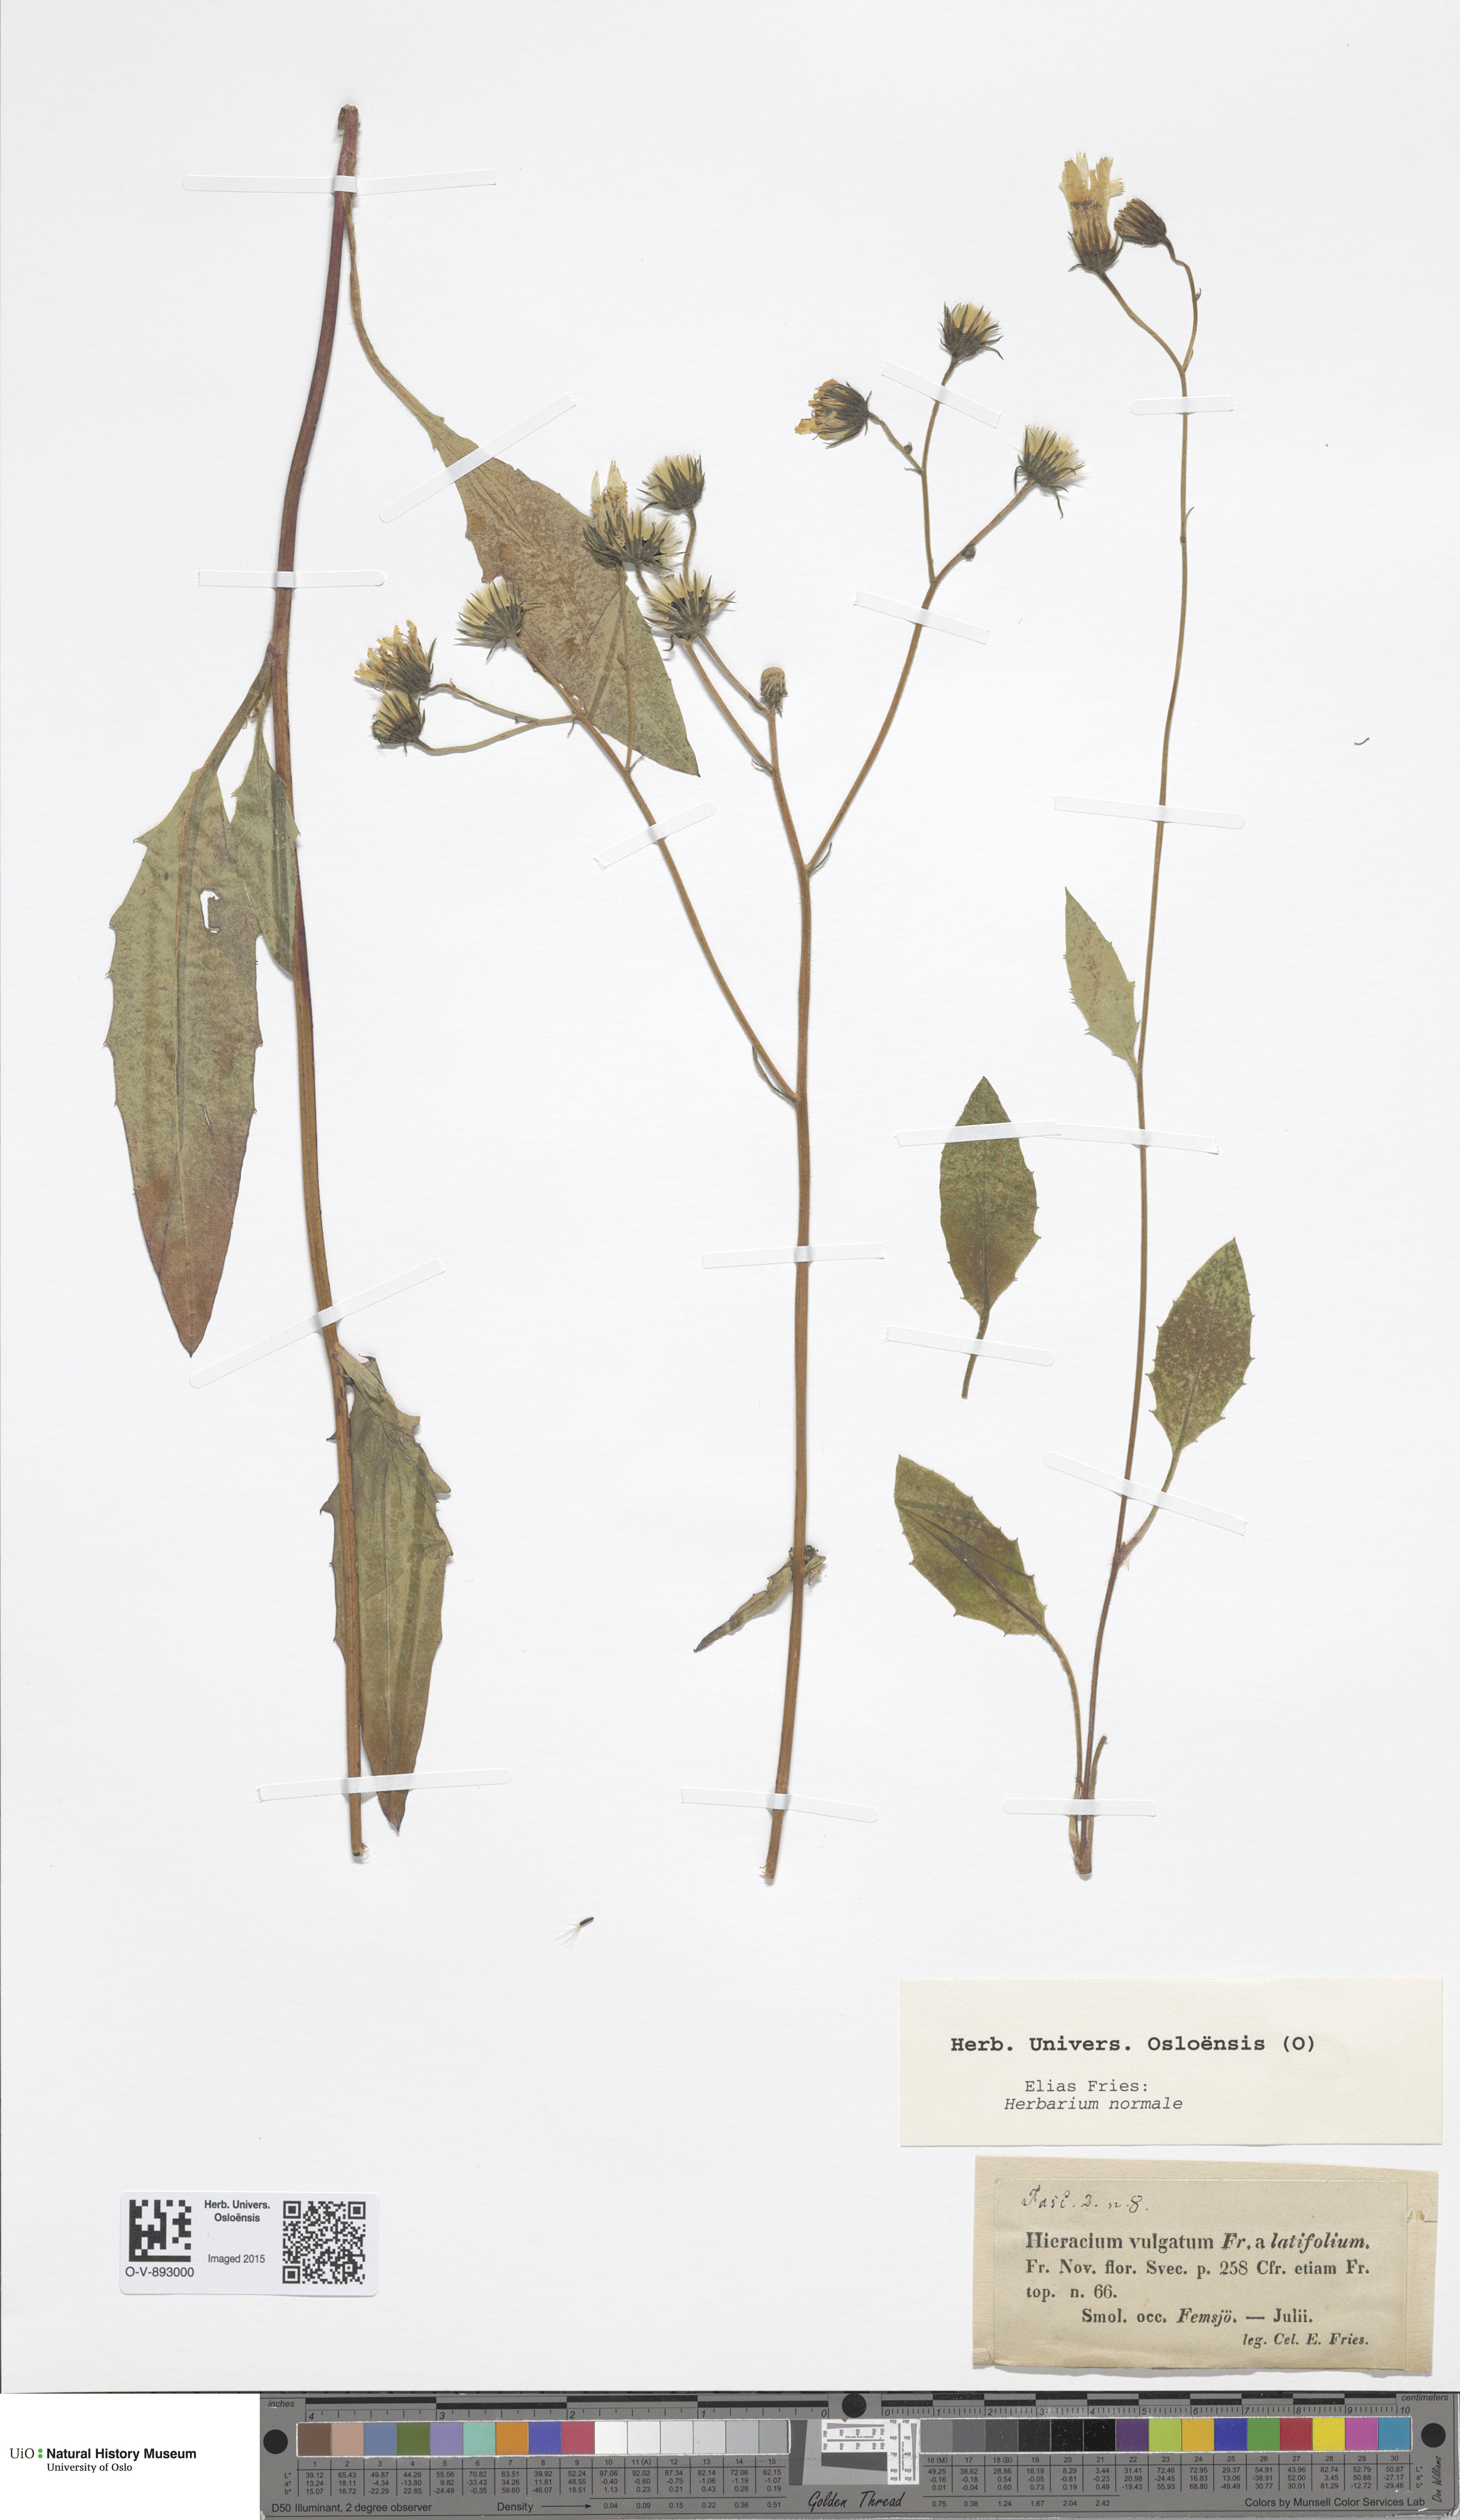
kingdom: Plantae
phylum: Tracheophyta
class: Magnoliopsida
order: Asterales
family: Asteraceae
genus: Hieracium
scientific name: Hieracium lachenalii
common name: Common hawkweed
